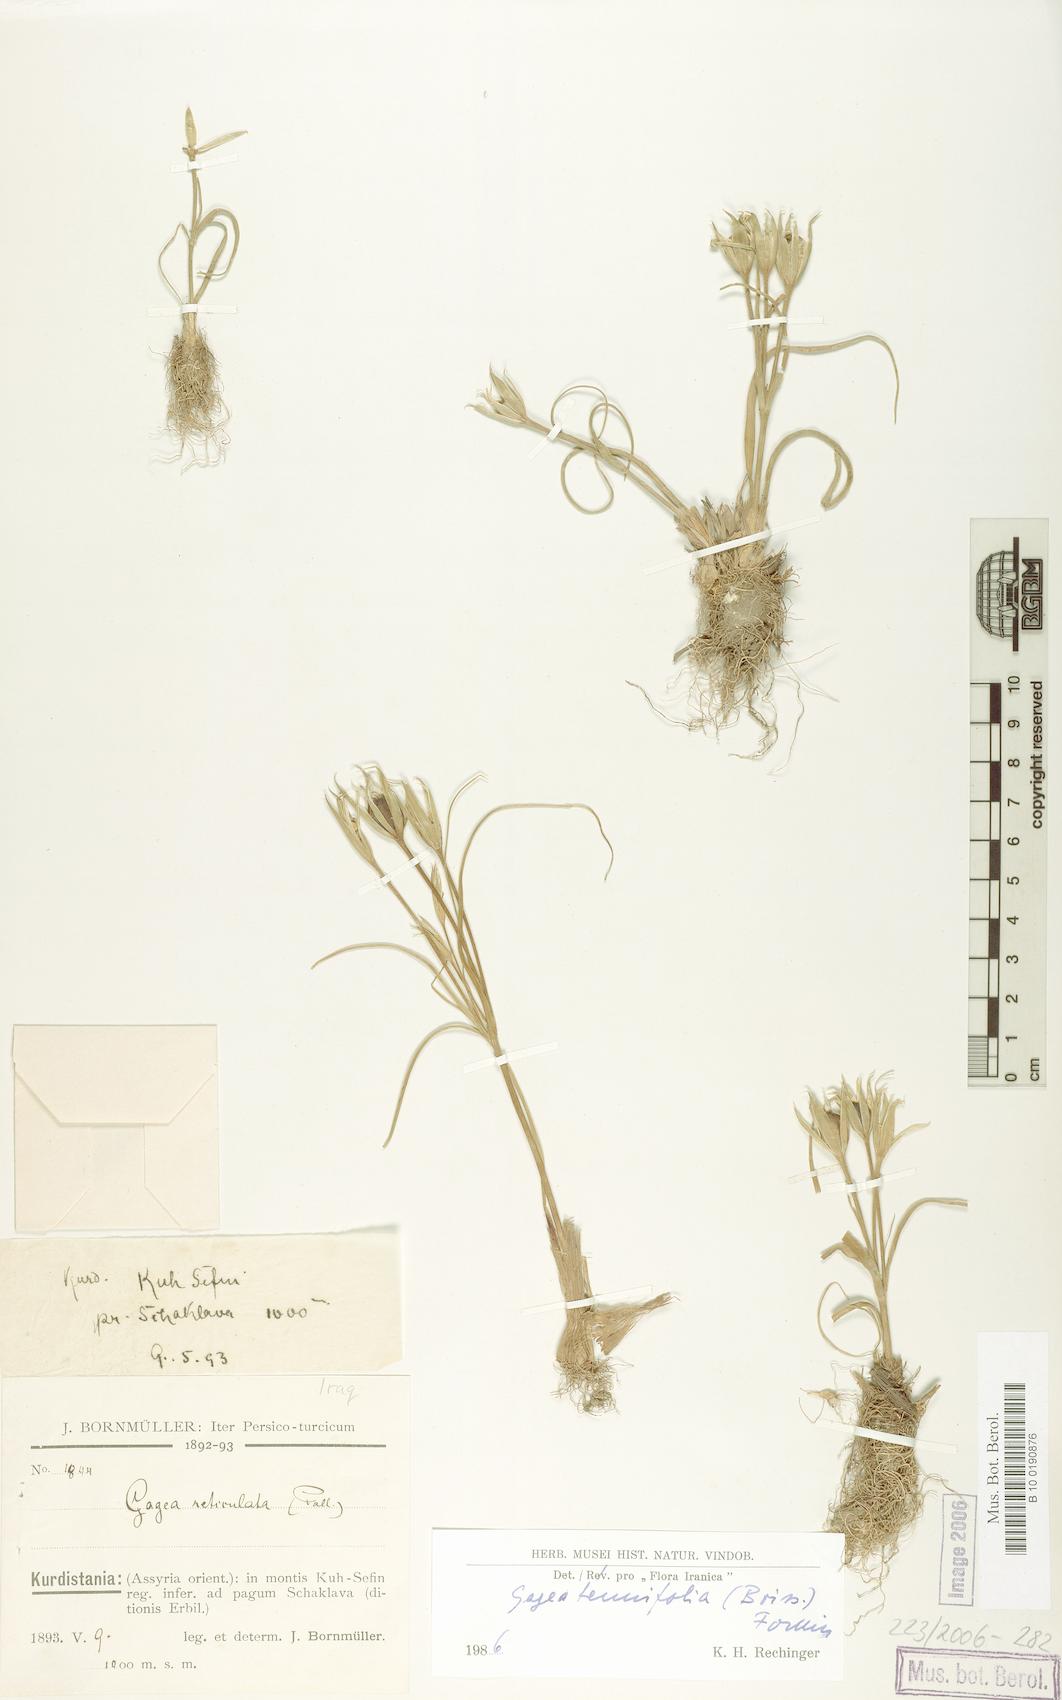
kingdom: Plantae
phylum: Tracheophyta
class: Liliopsida
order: Liliales
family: Liliaceae
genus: Gagea
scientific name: Gagea reticulata
